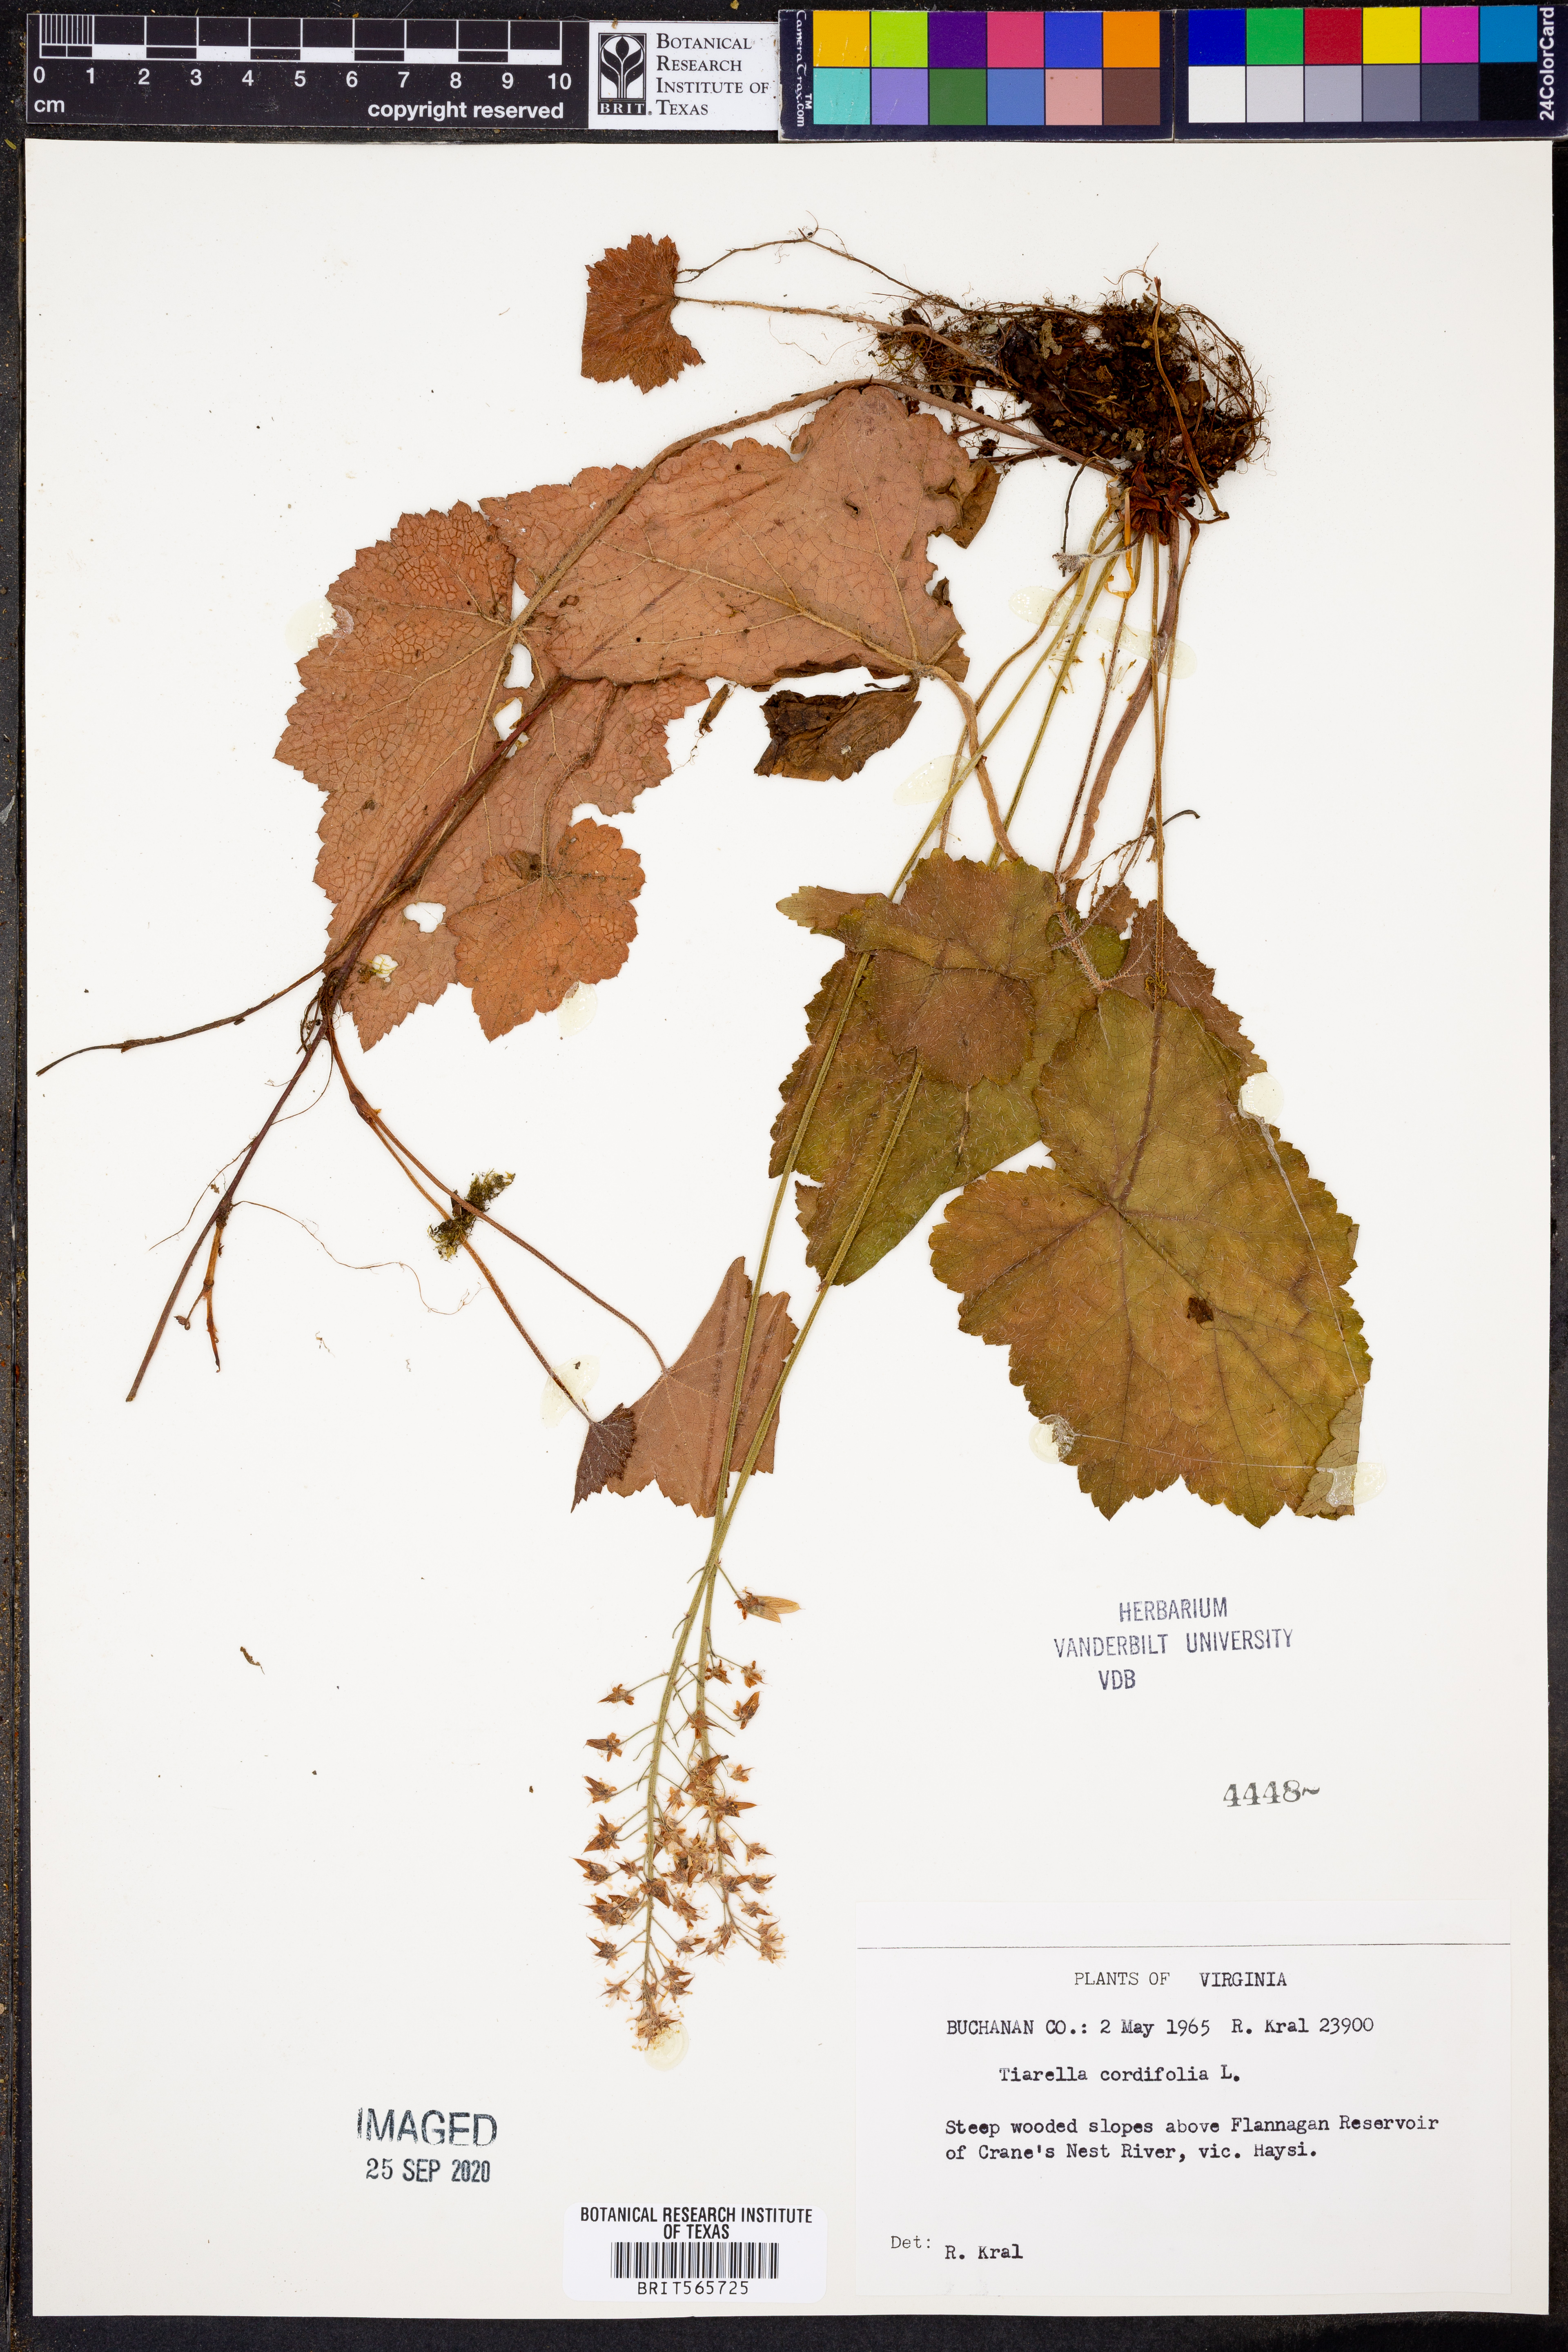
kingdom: Plantae
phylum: Tracheophyta
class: Magnoliopsida
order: Saxifragales
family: Saxifragaceae
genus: Tiarella
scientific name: Tiarella cordifolia
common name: Foamflower
